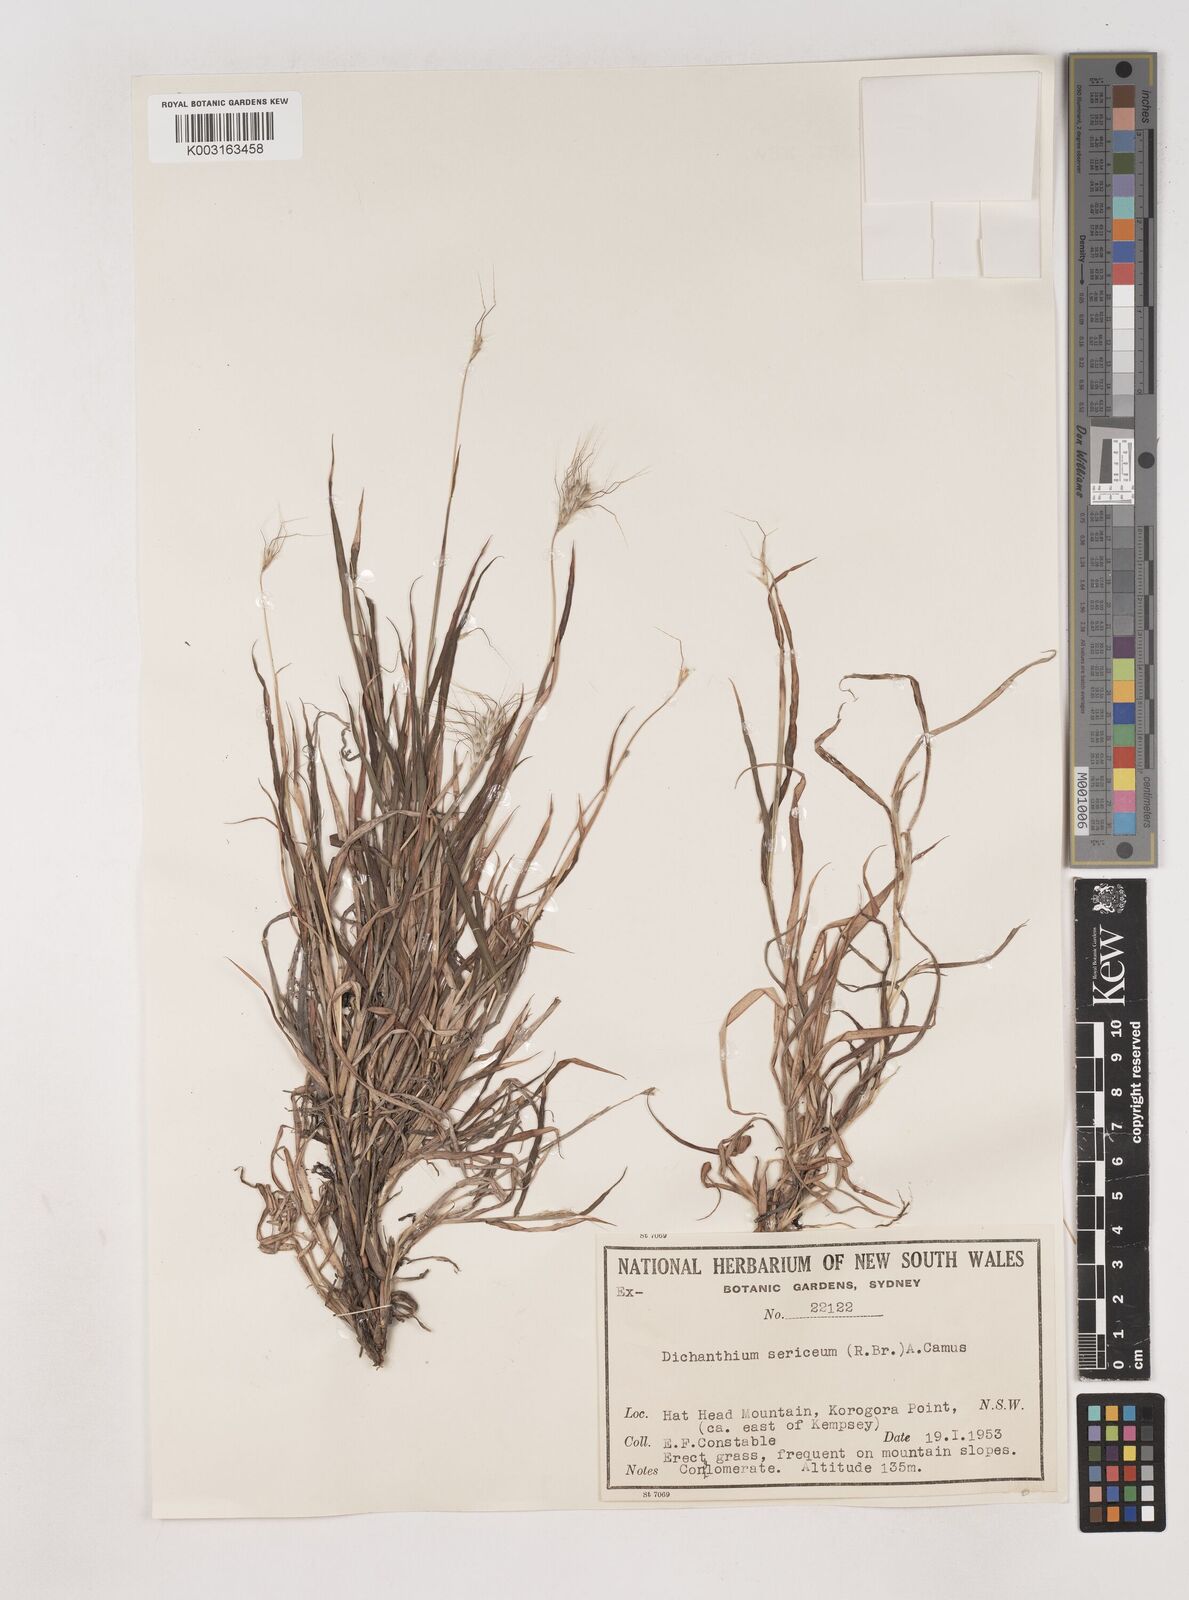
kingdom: Plantae
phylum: Tracheophyta
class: Liliopsida
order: Poales
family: Poaceae
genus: Dichanthium
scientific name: Dichanthium sericeum
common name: Silky bluestem
